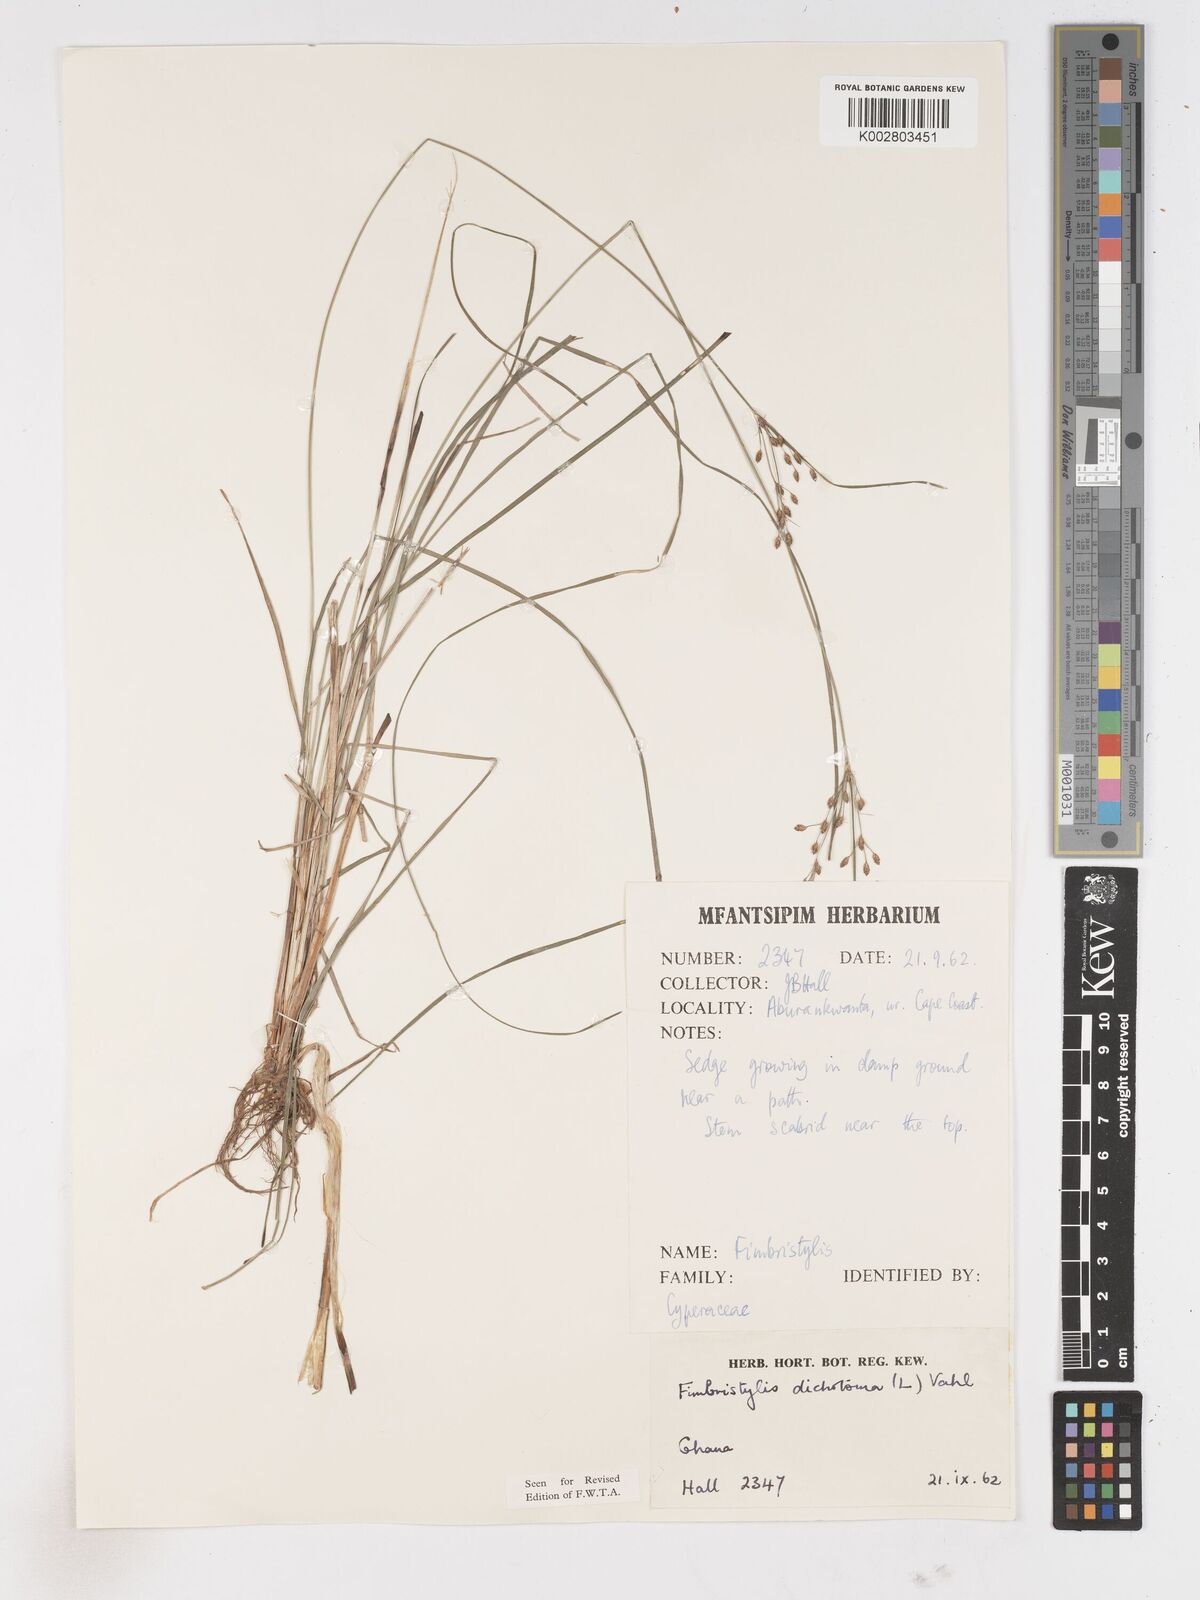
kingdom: Plantae
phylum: Tracheophyta
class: Liliopsida
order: Poales
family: Cyperaceae
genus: Fimbristylis
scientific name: Fimbristylis dichotoma
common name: Forked fimbry
